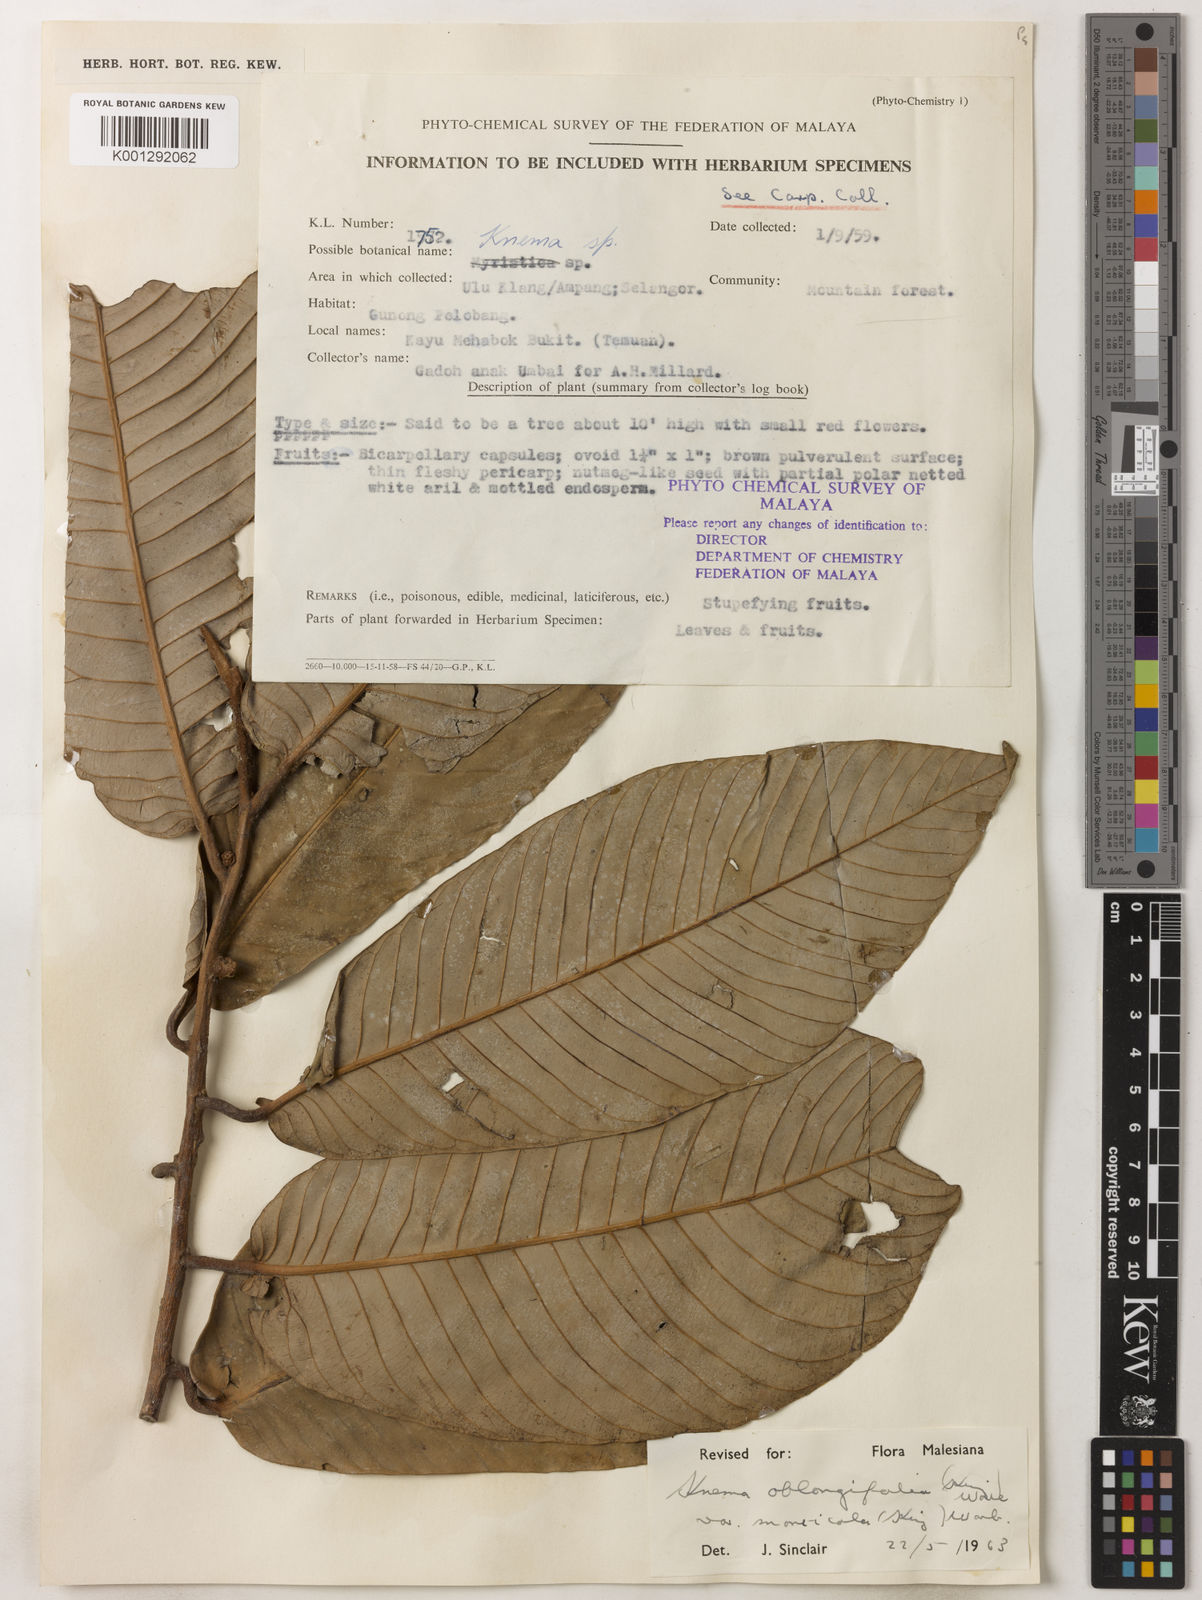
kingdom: Plantae
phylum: Tracheophyta
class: Magnoliopsida
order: Magnoliales
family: Myristicaceae
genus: Knema
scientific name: Knema
